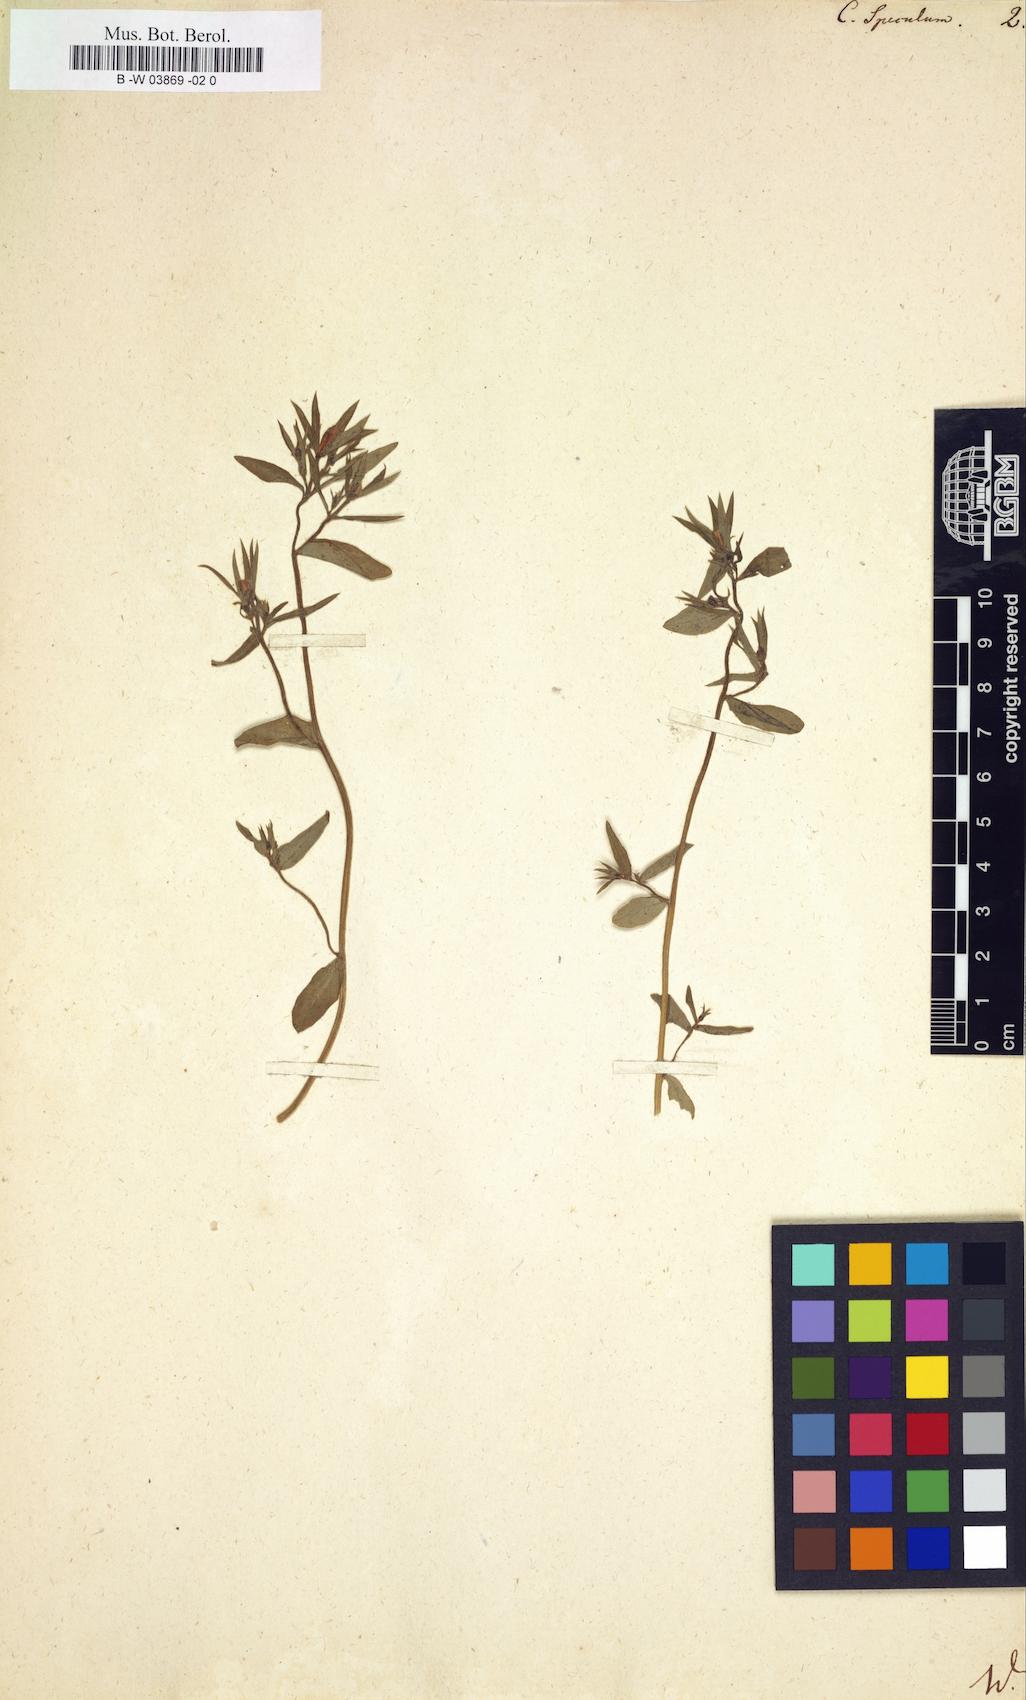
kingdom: Plantae
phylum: Tracheophyta
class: Magnoliopsida
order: Asterales
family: Campanulaceae
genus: Campanula
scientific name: Campanula speculum
